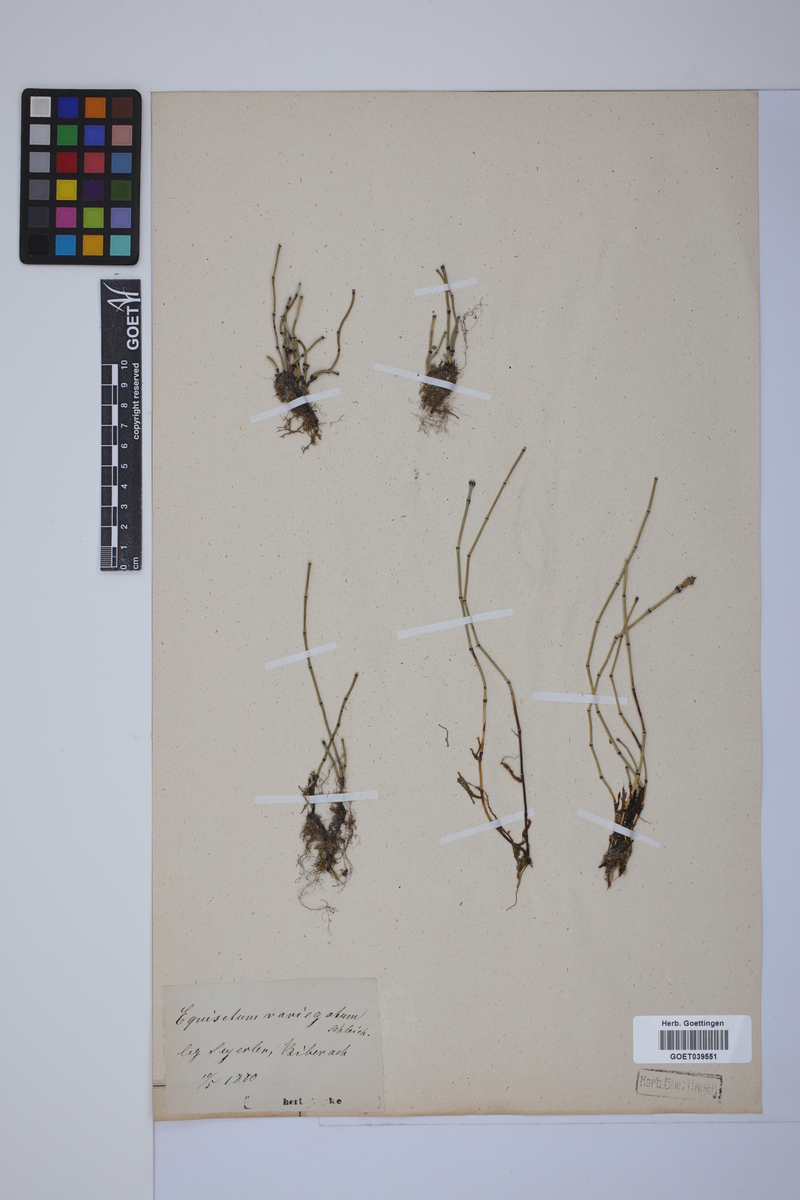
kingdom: Plantae
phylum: Tracheophyta
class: Polypodiopsida
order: Equisetales
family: Equisetaceae
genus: Equisetum
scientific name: Equisetum variegatum
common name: Variegated horsetail
